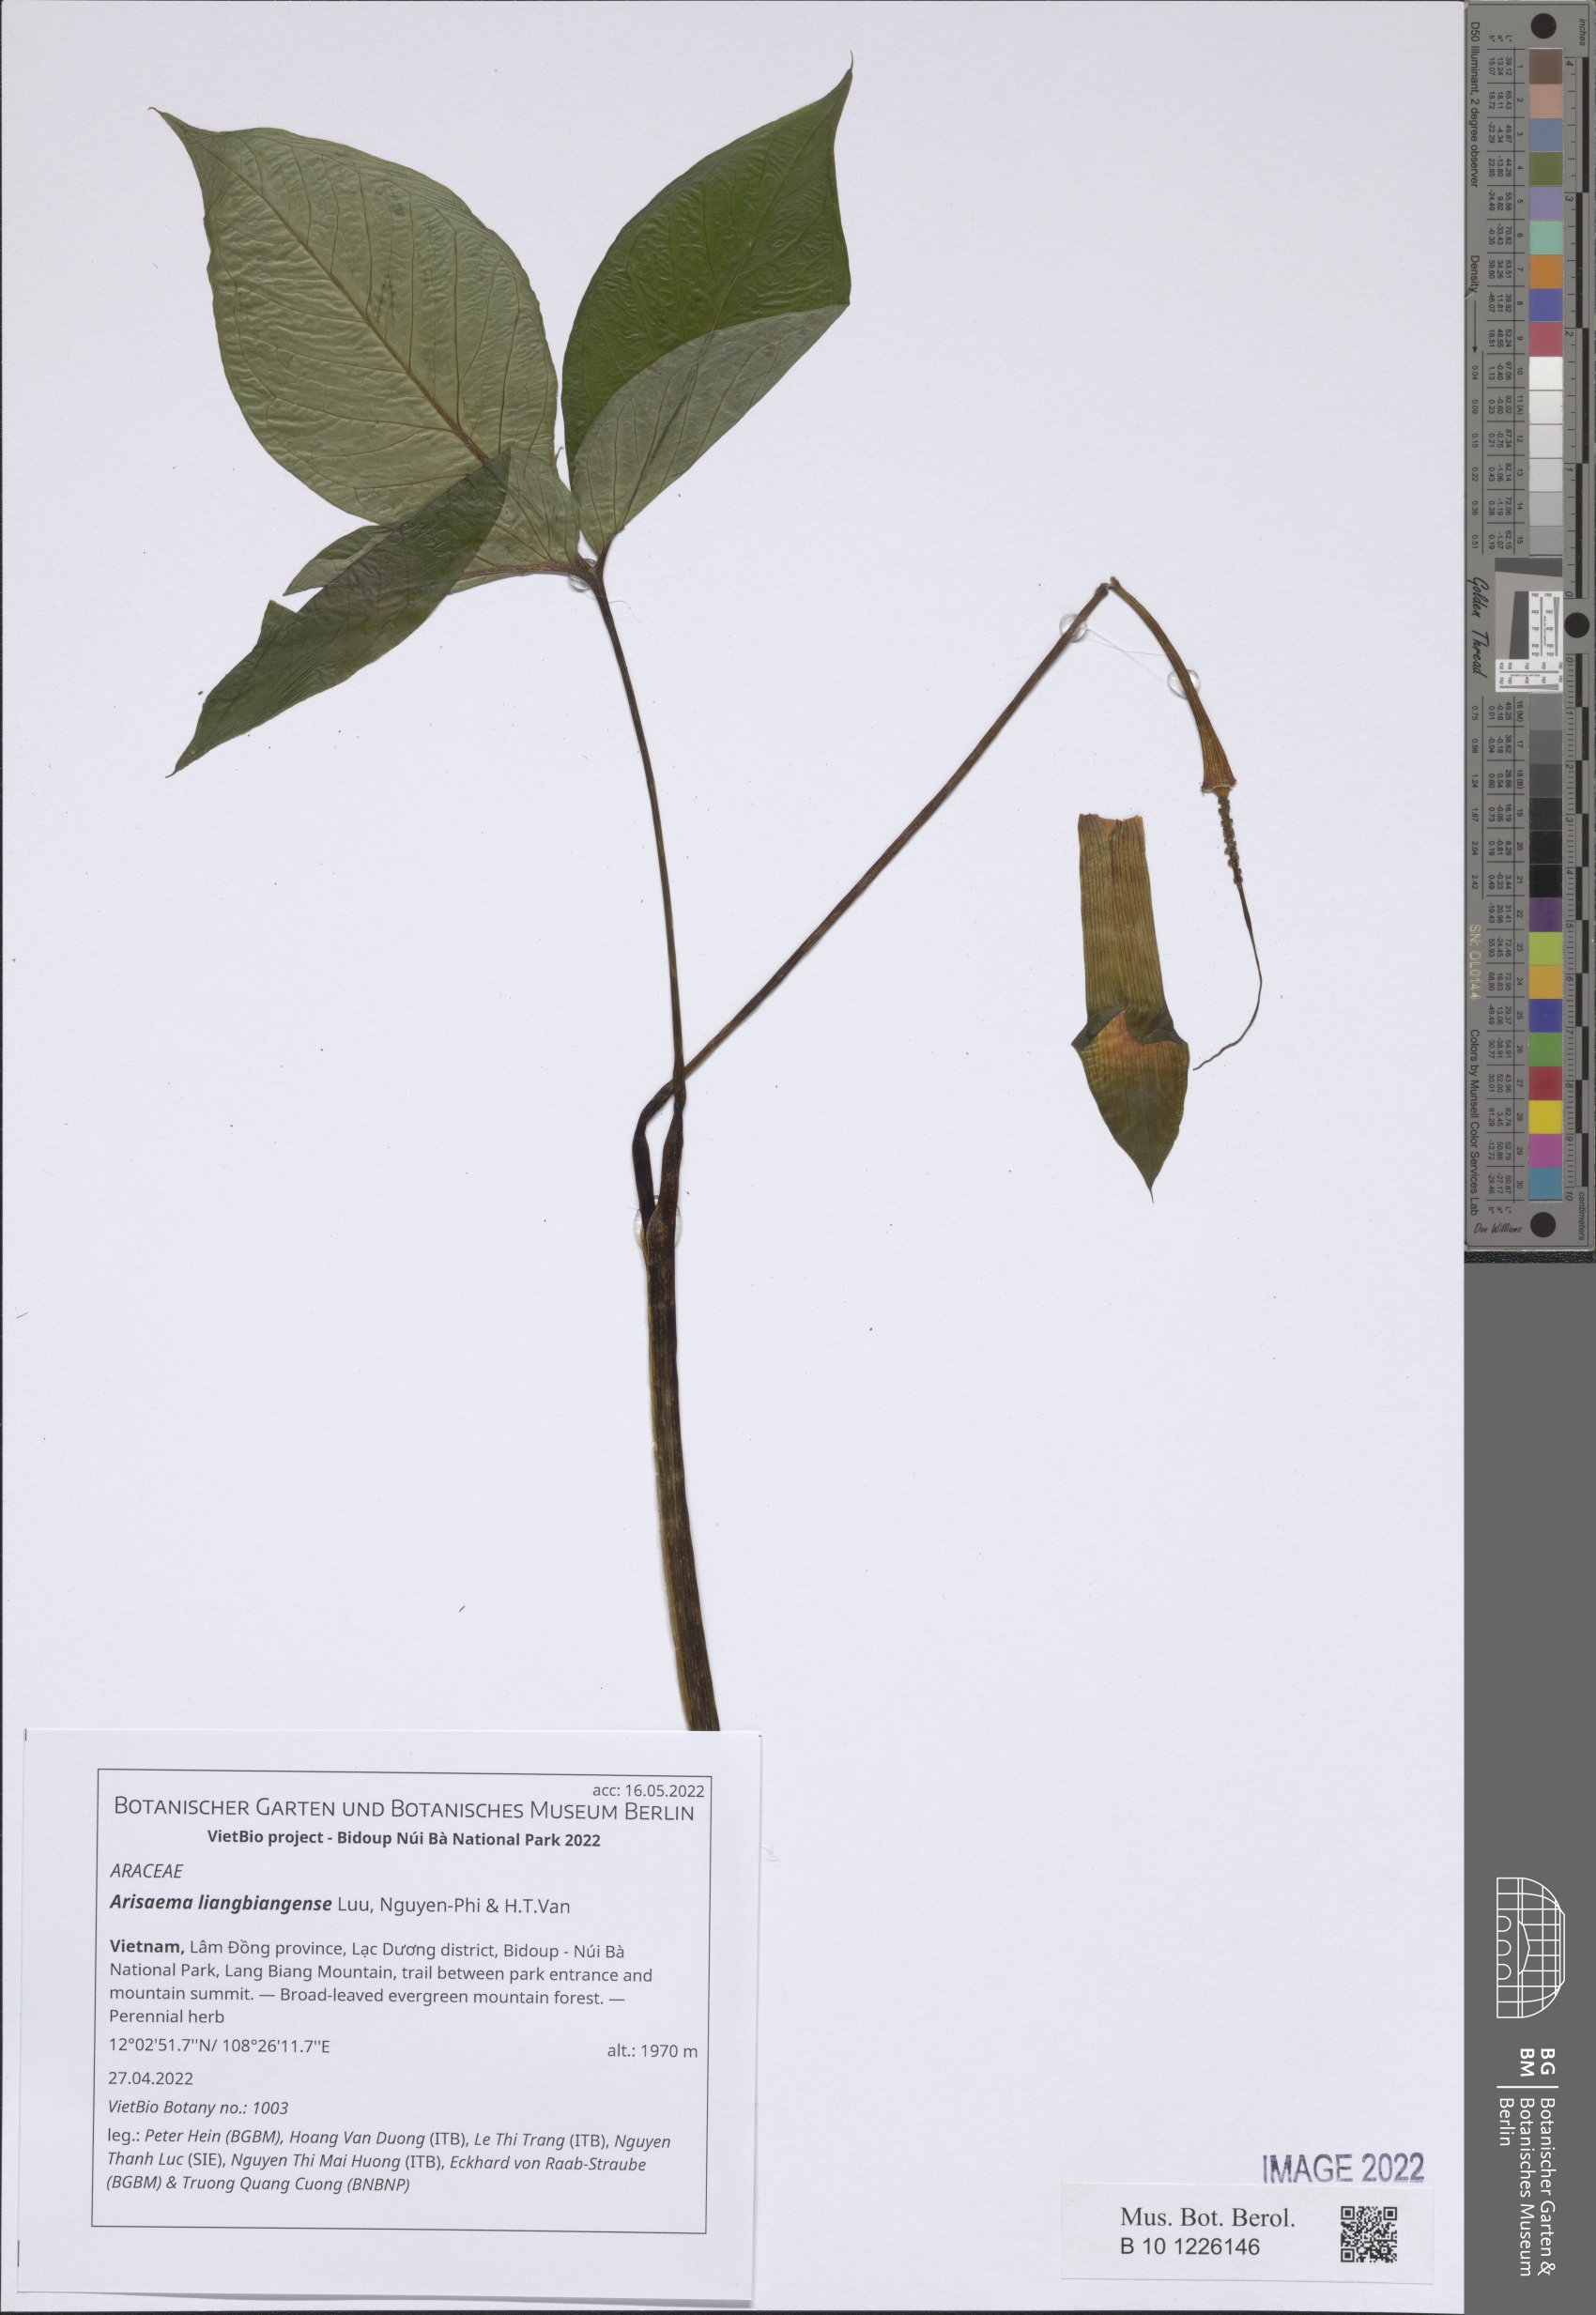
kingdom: Plantae
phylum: Tracheophyta
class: Liliopsida
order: Alismatales
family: Araceae
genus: Arisaema
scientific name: Arisaema
